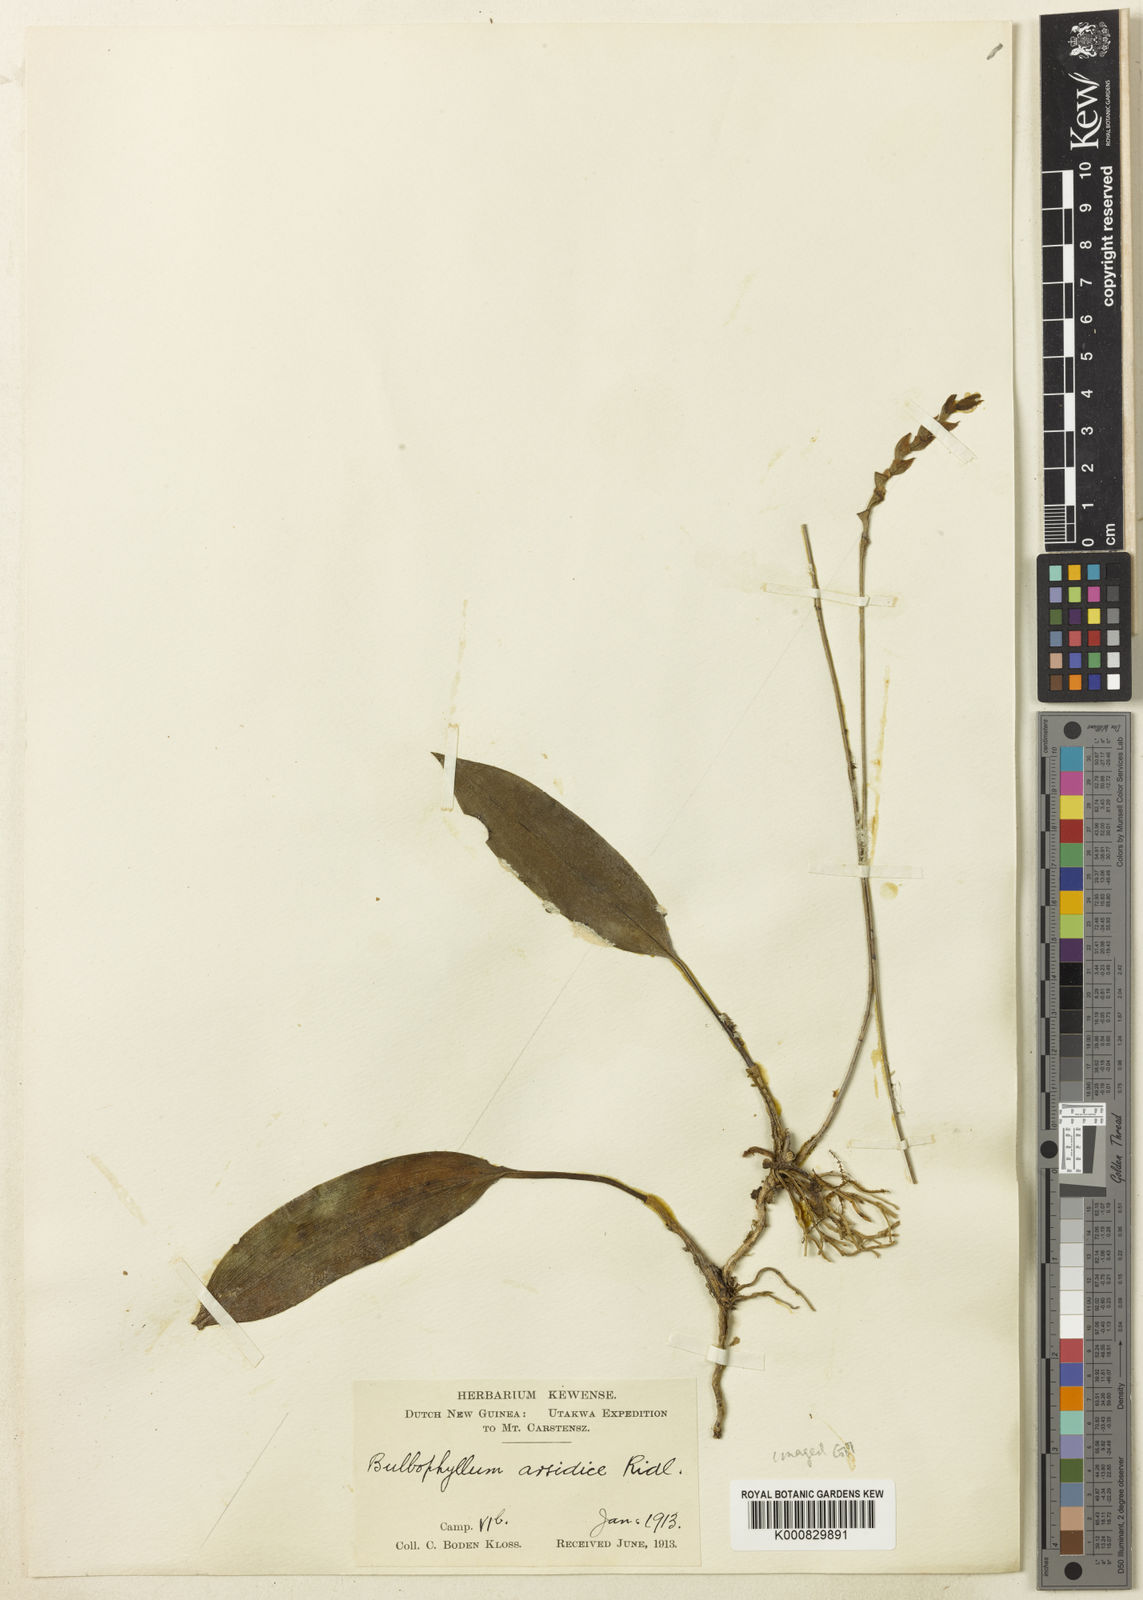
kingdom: Plantae
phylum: Tracheophyta
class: Liliopsida
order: Asparagales
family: Orchidaceae
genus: Bulbophyllum
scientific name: Bulbophyllum orsidice
